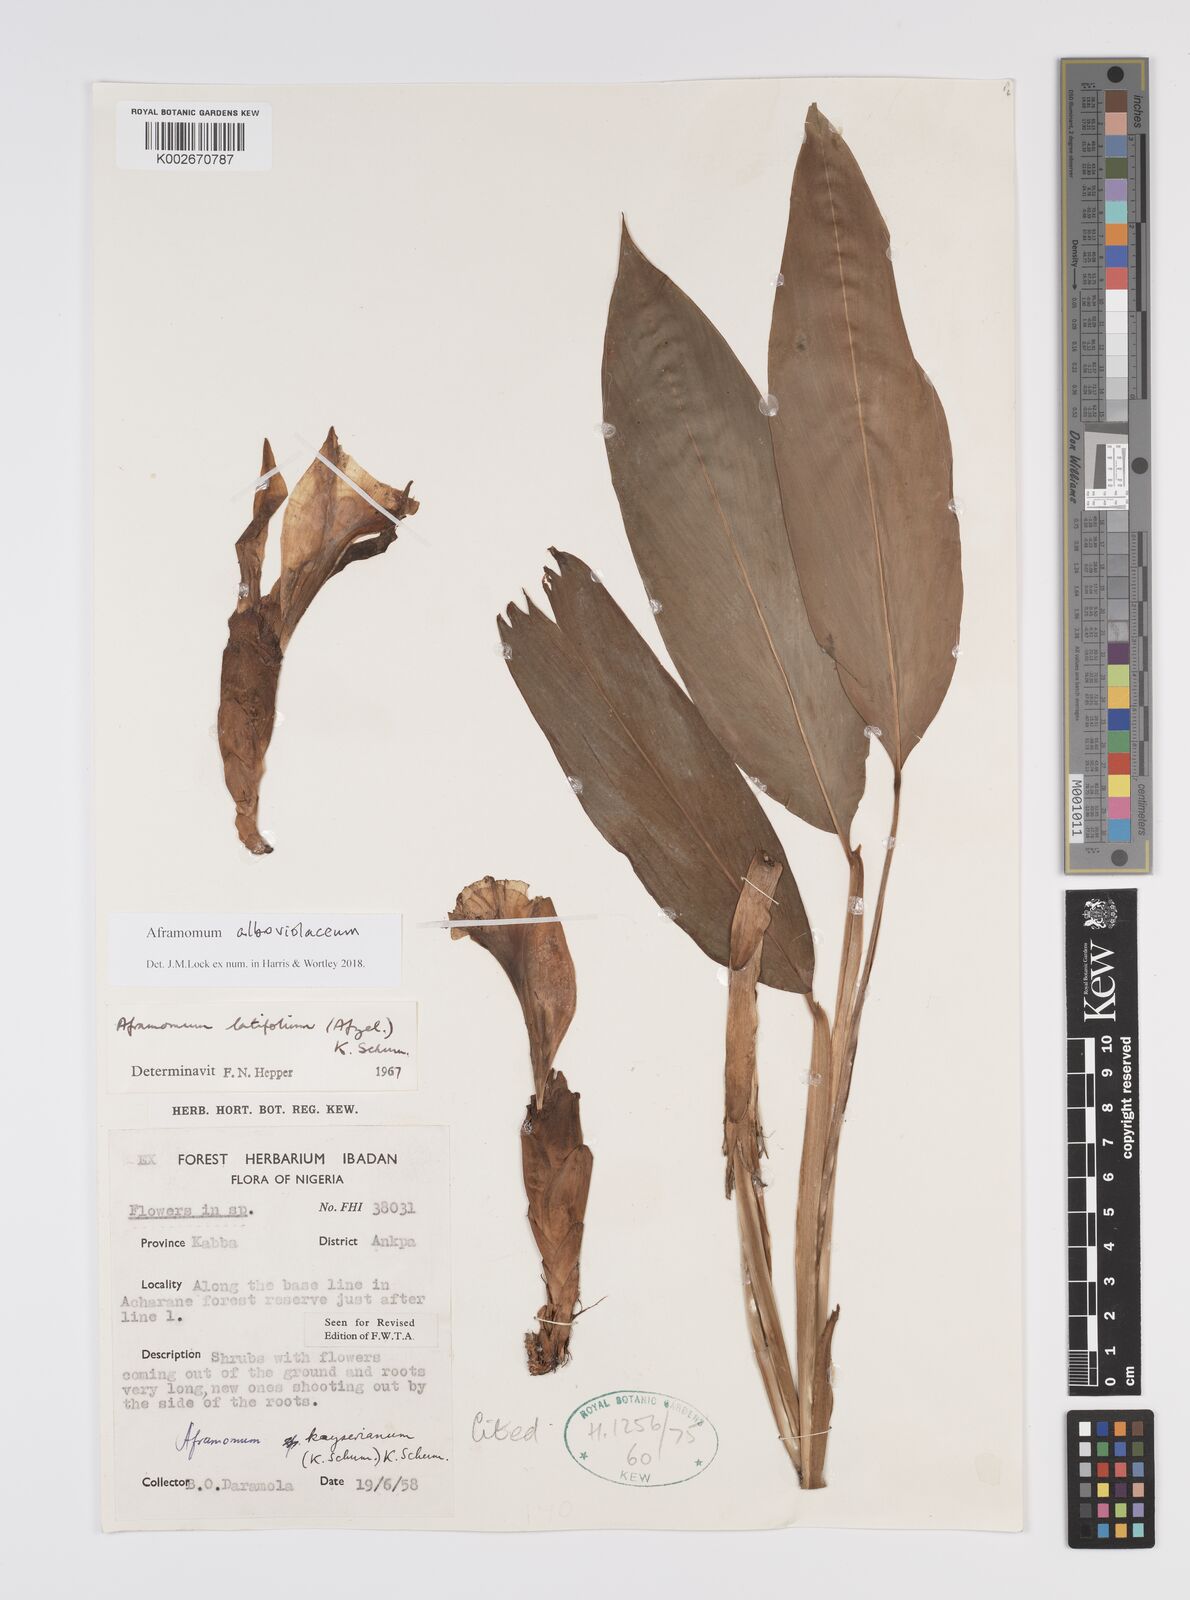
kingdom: Plantae
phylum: Tracheophyta
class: Liliopsida
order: Zingiberales
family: Zingiberaceae
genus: Aframomum
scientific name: Aframomum alboviolaceum
